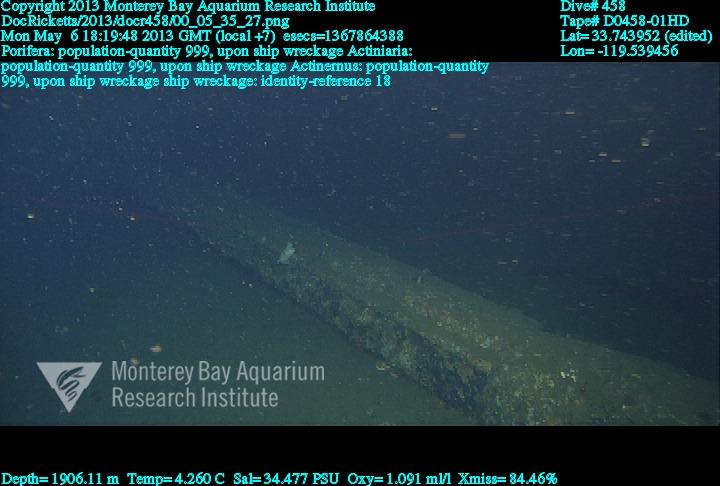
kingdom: Animalia
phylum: Porifera
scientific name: Porifera
